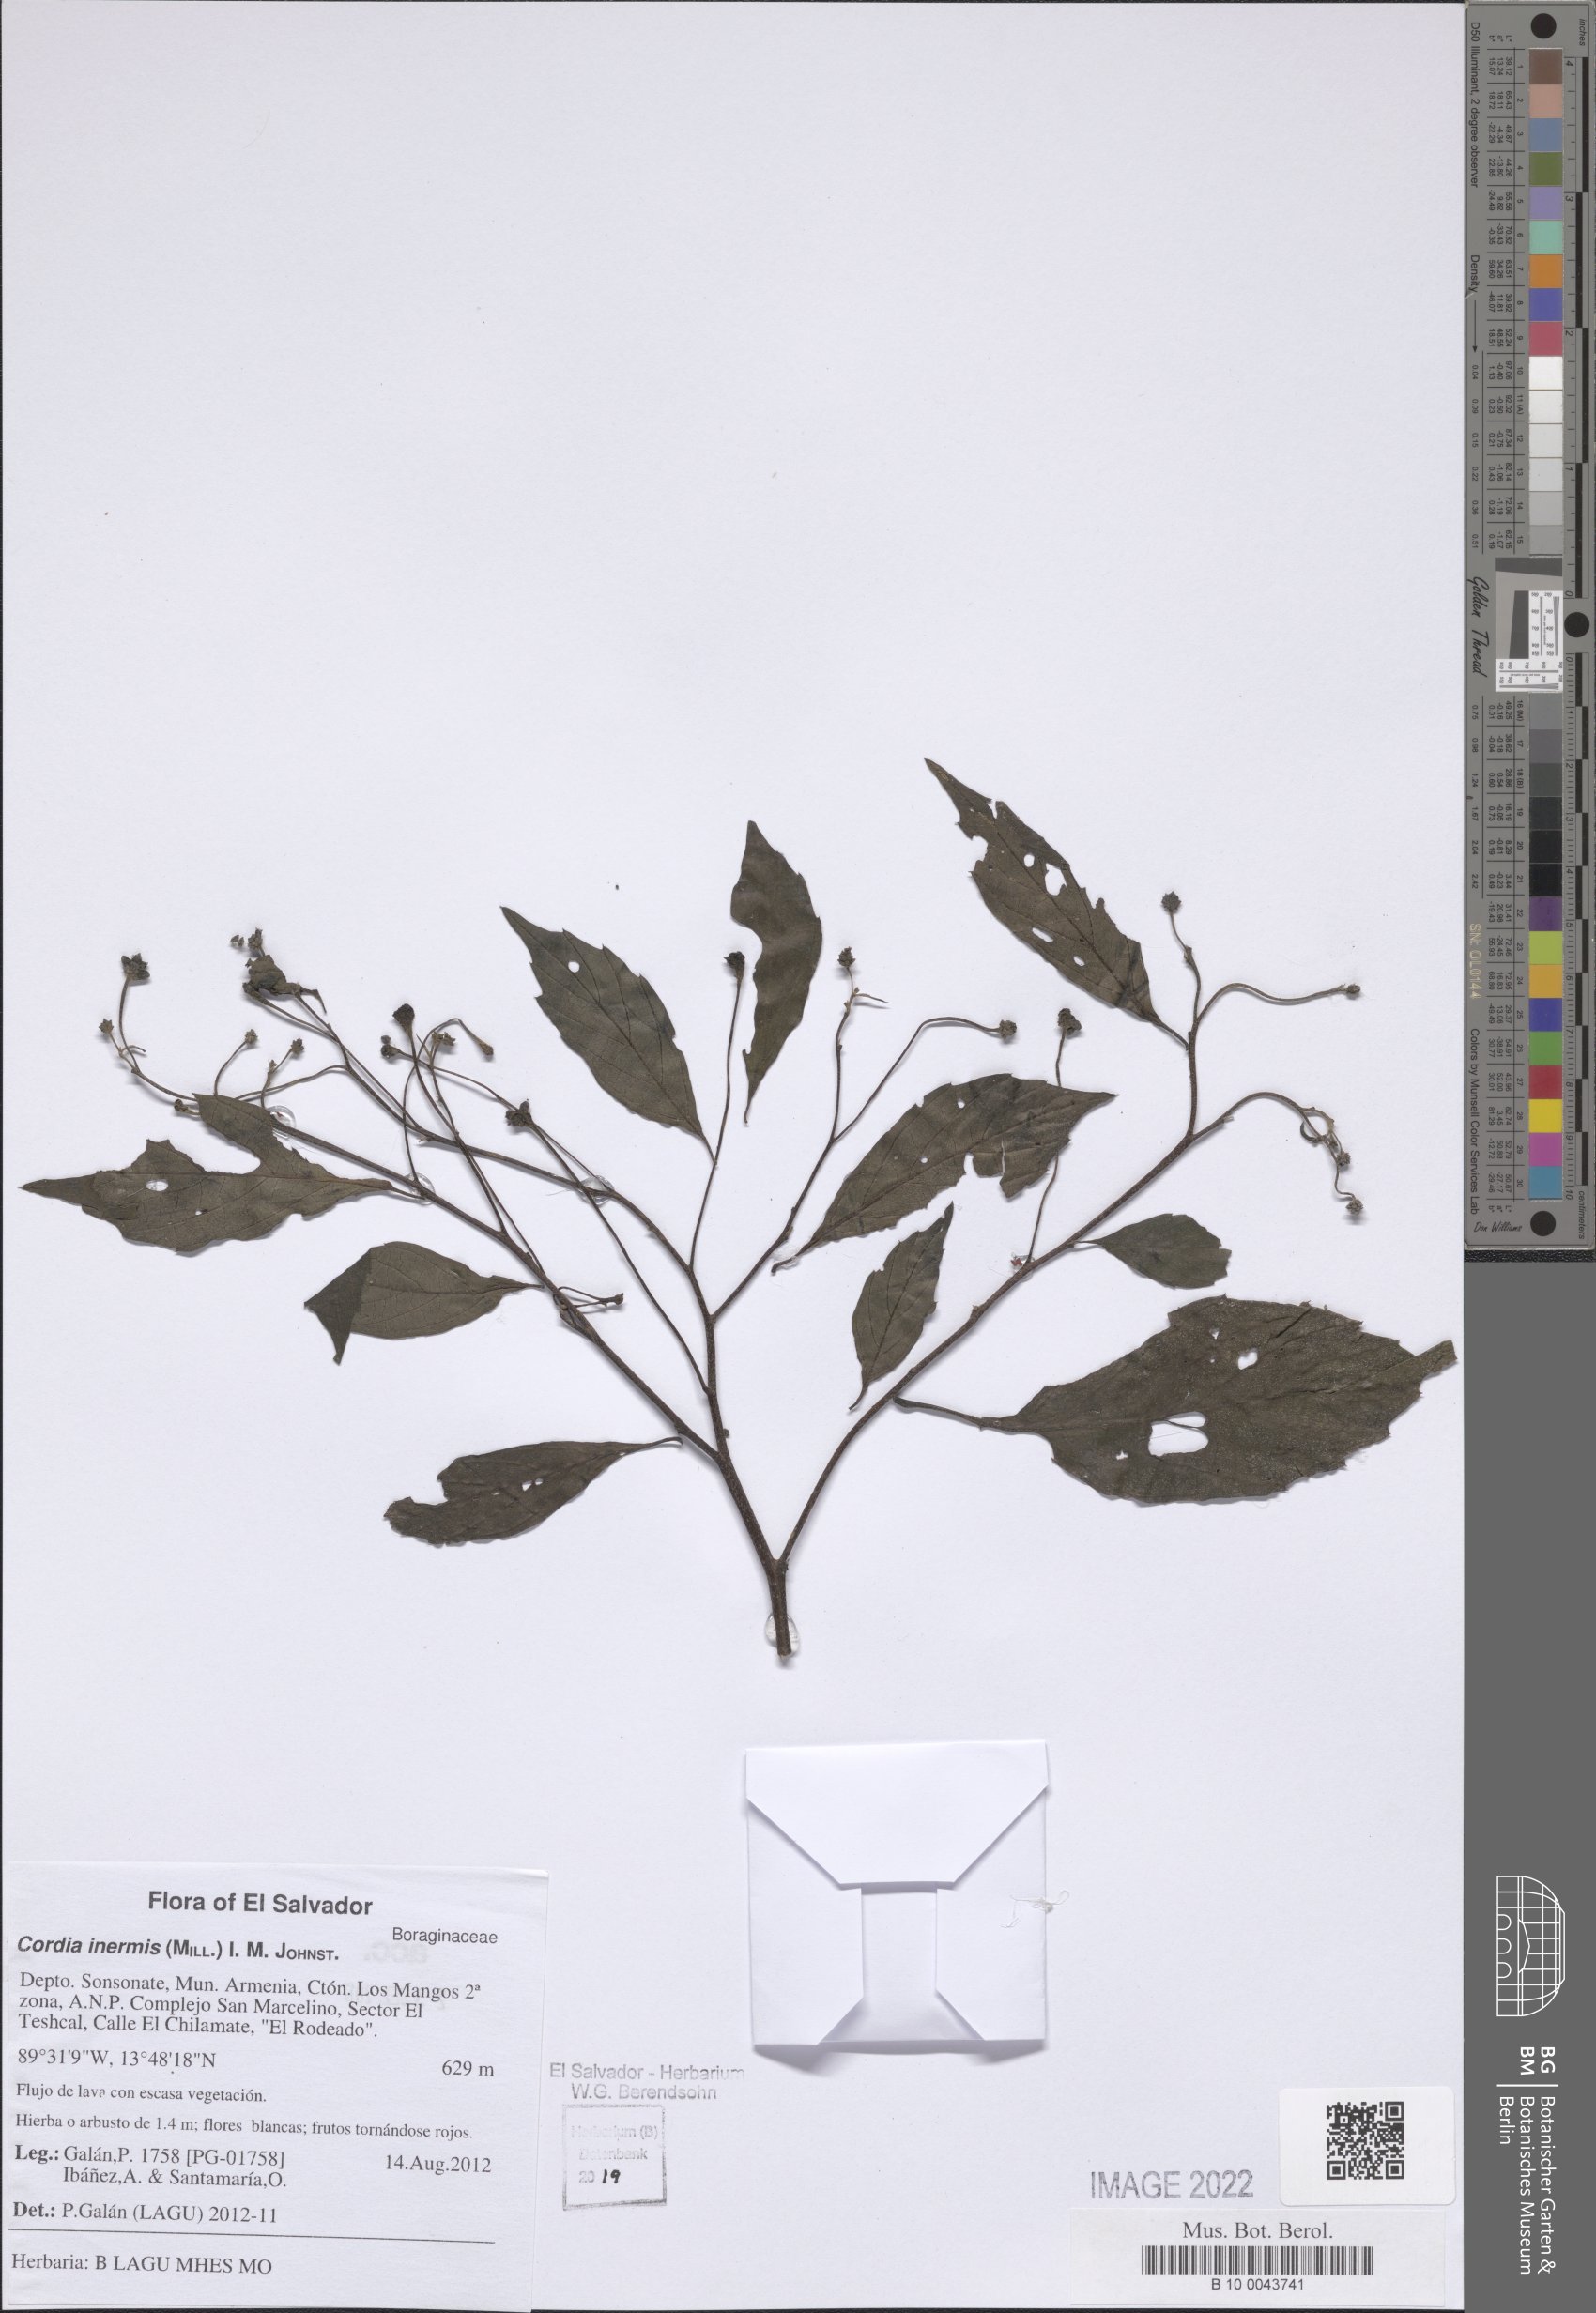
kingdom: Plantae
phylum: Tracheophyta
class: Magnoliopsida
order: Boraginales
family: Cordiaceae
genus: Varronia
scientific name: Varronia inermis
